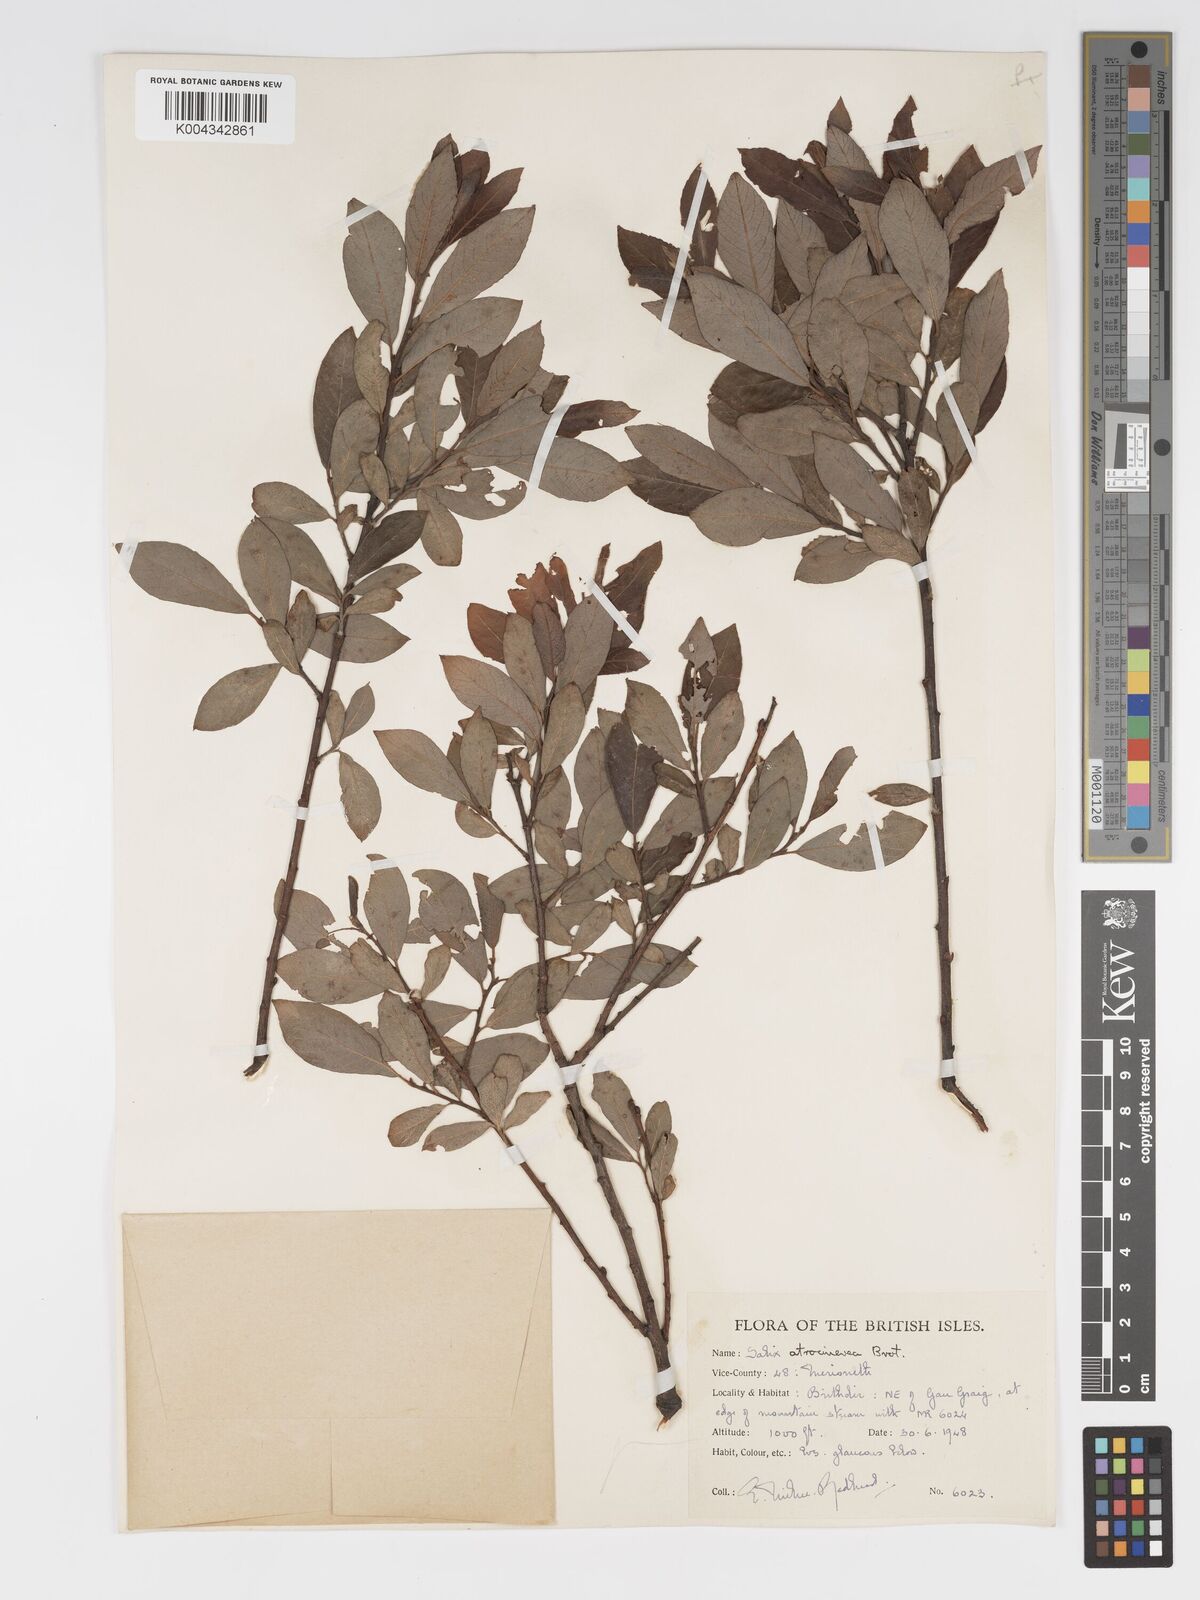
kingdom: Plantae
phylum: Tracheophyta
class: Magnoliopsida
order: Malpighiales
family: Salicaceae
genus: Salix
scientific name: Salix atrocinerea
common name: Rusty willow
